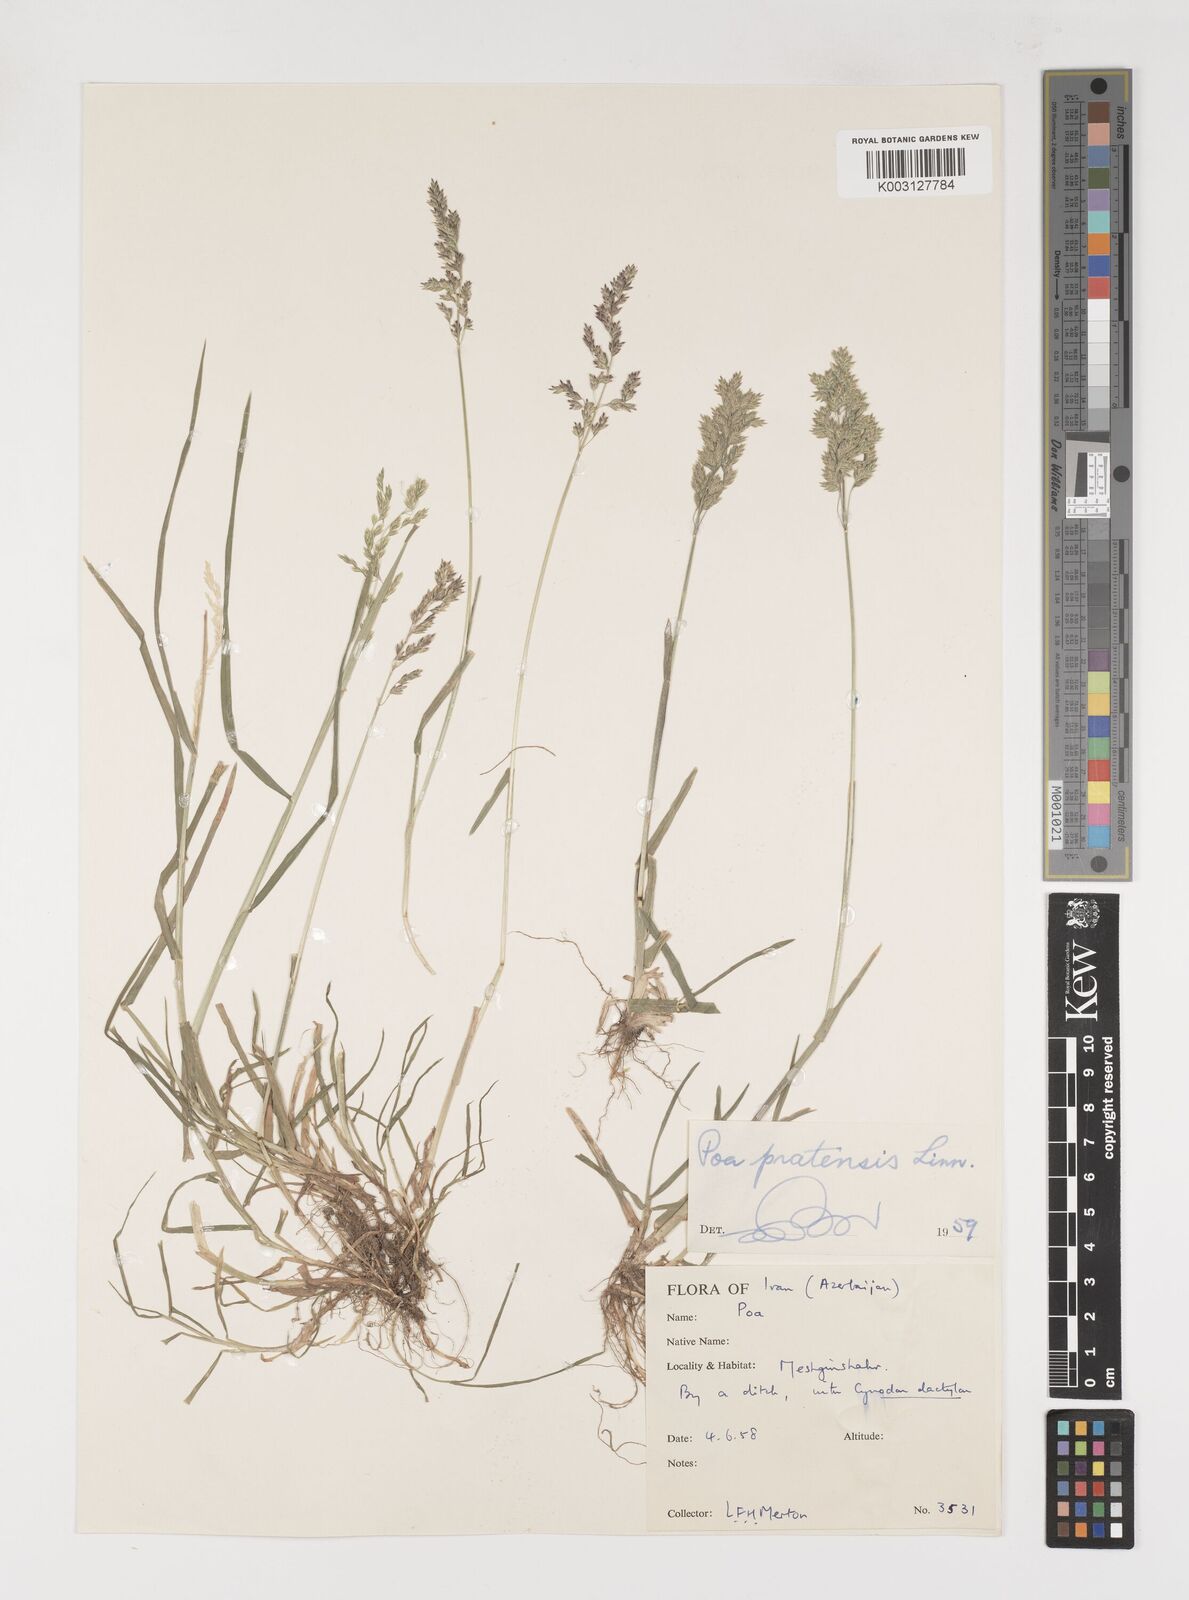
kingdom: Plantae
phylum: Tracheophyta
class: Liliopsida
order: Poales
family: Poaceae
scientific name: Poaceae
